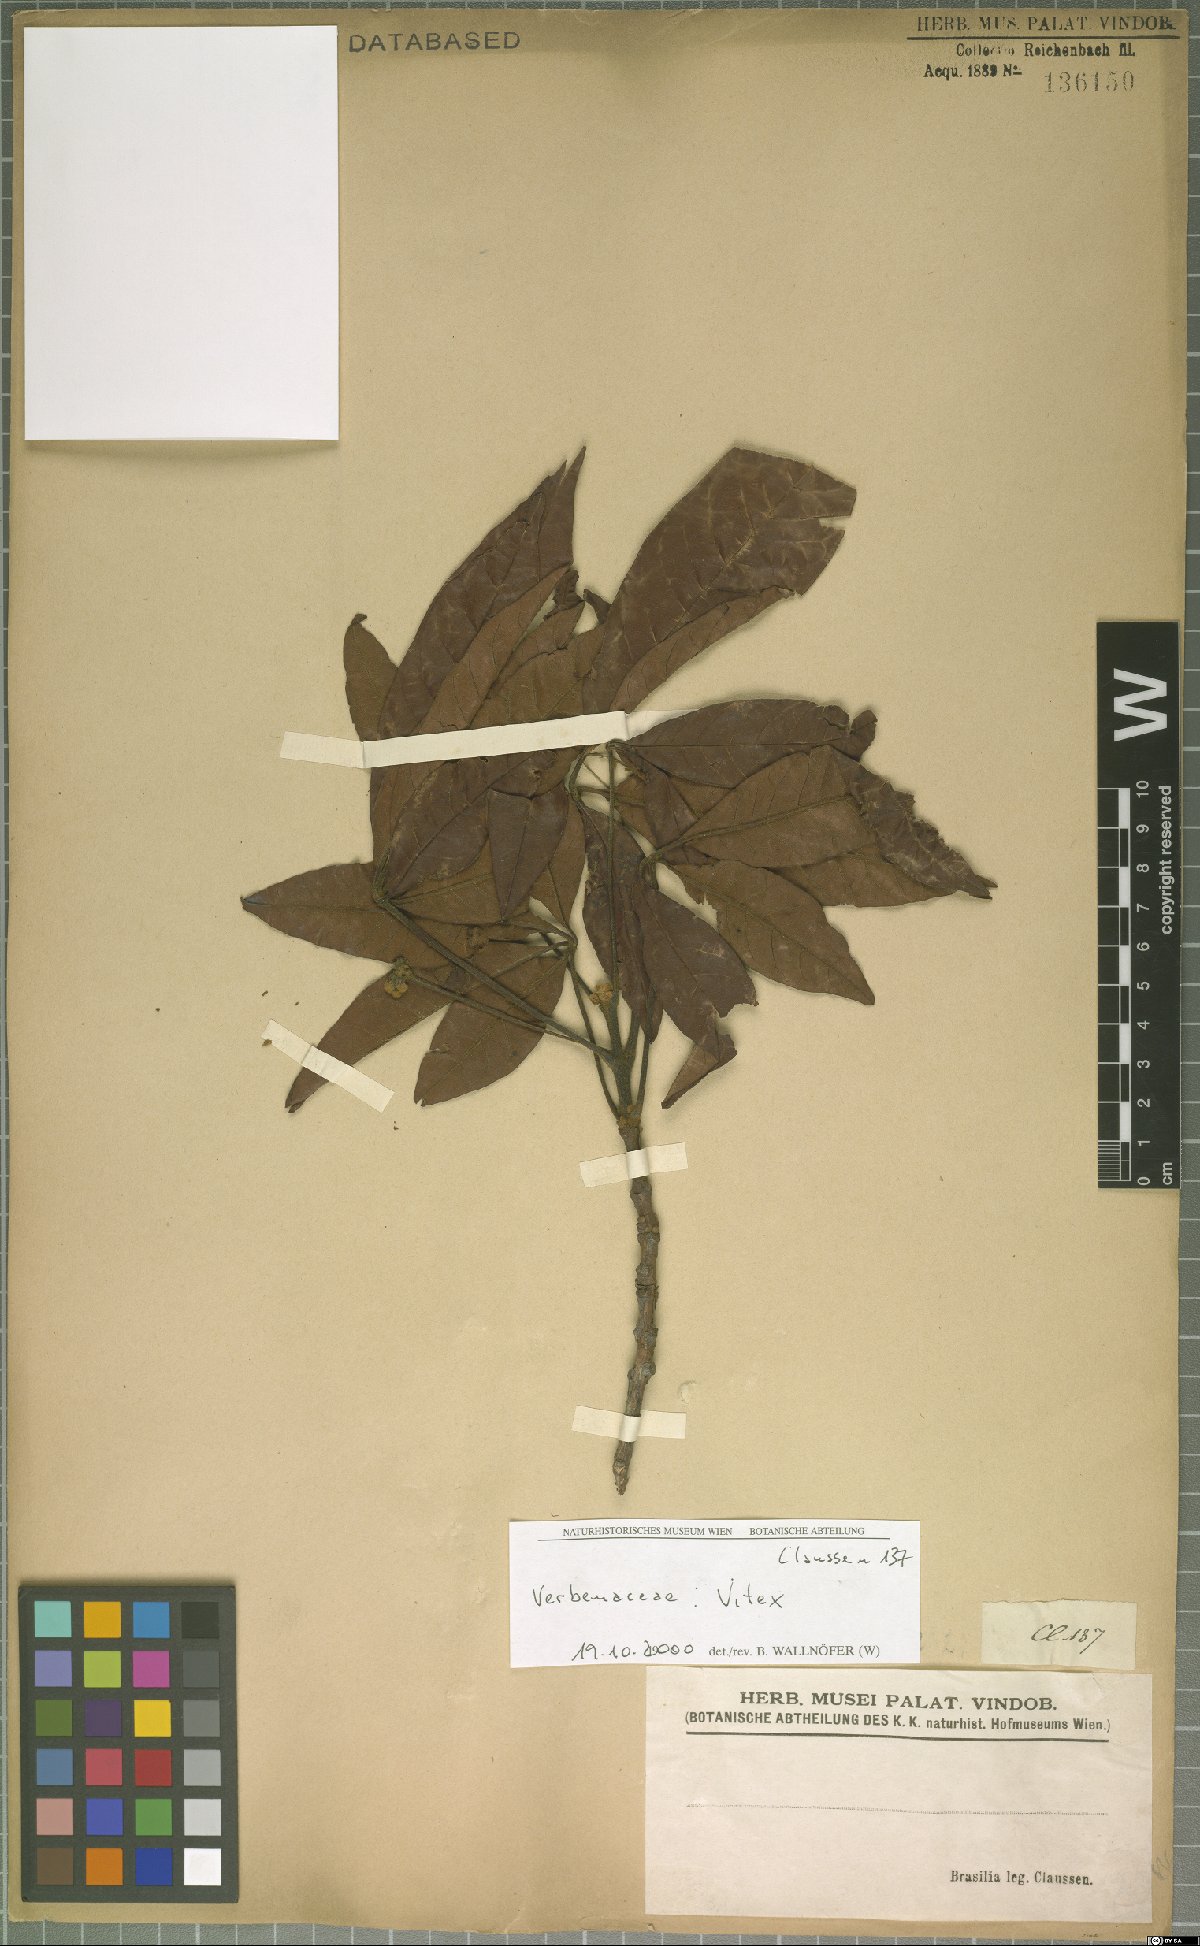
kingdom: Plantae
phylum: Tracheophyta
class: Magnoliopsida
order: Lamiales
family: Lamiaceae
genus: Vitex
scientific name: Vitex
